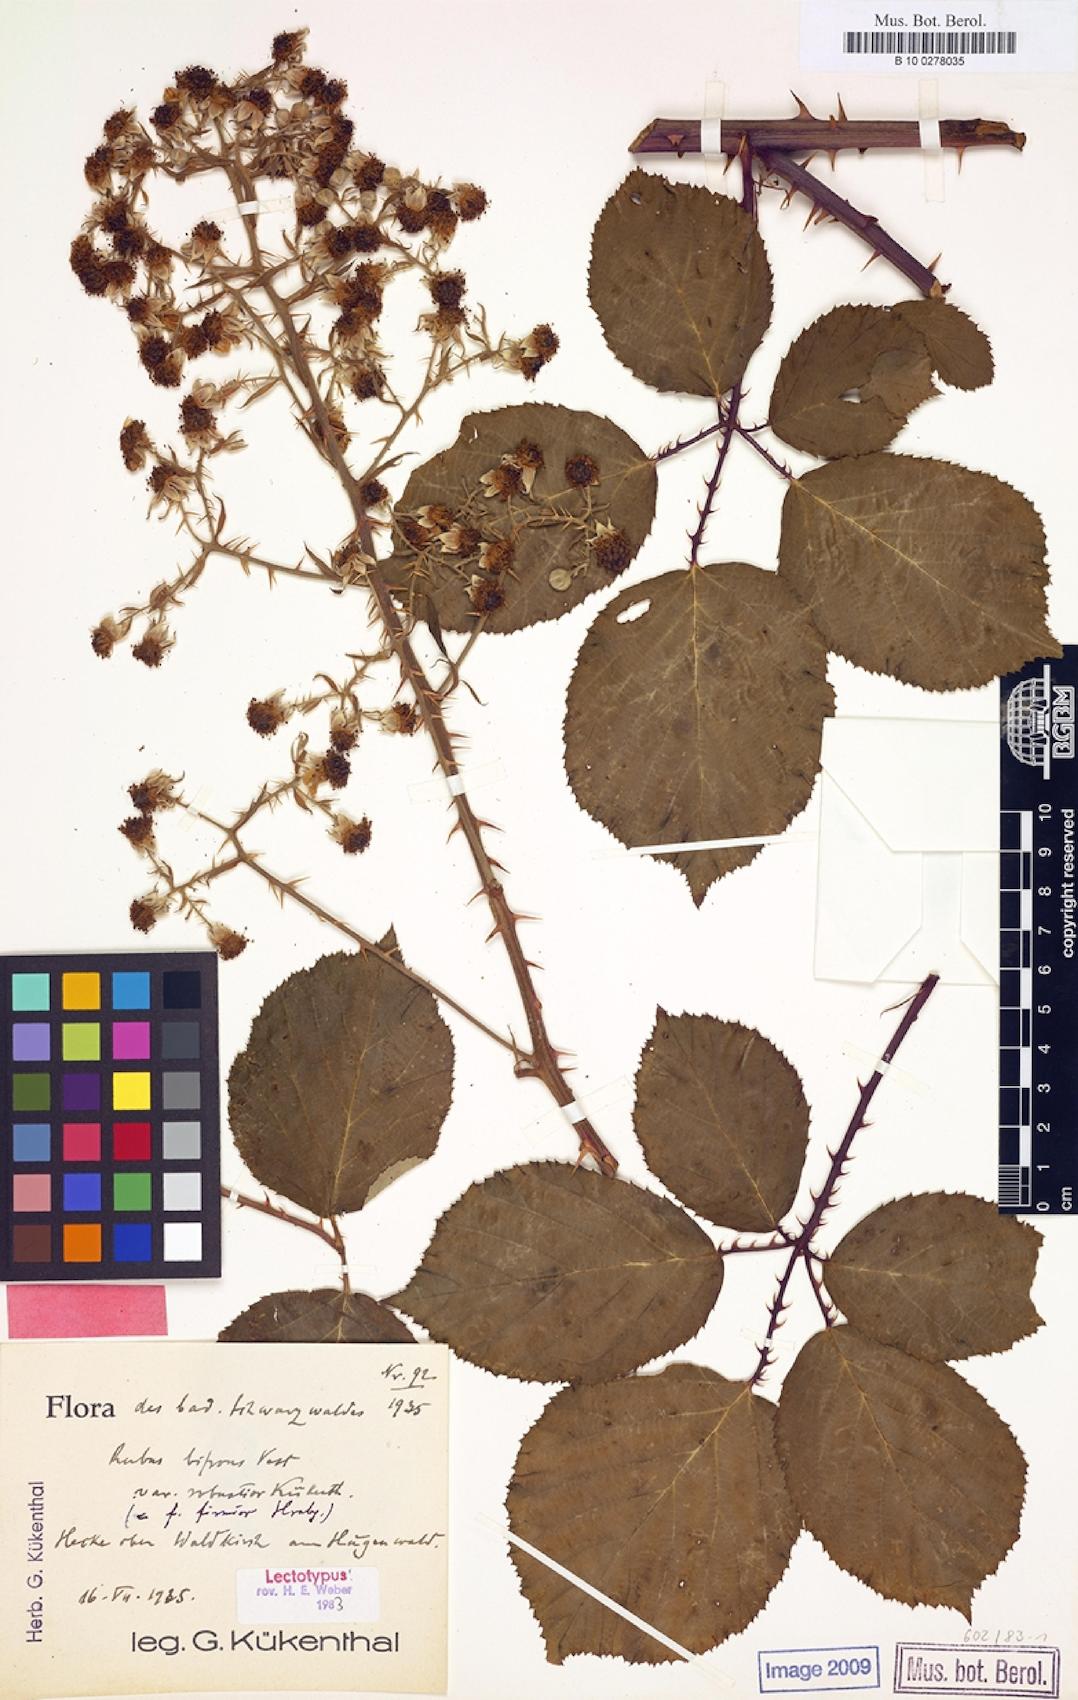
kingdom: Plantae
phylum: Tracheophyta
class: Magnoliopsida
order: Rosales
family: Rosaceae
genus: Rubus
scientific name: Rubus bifrons
